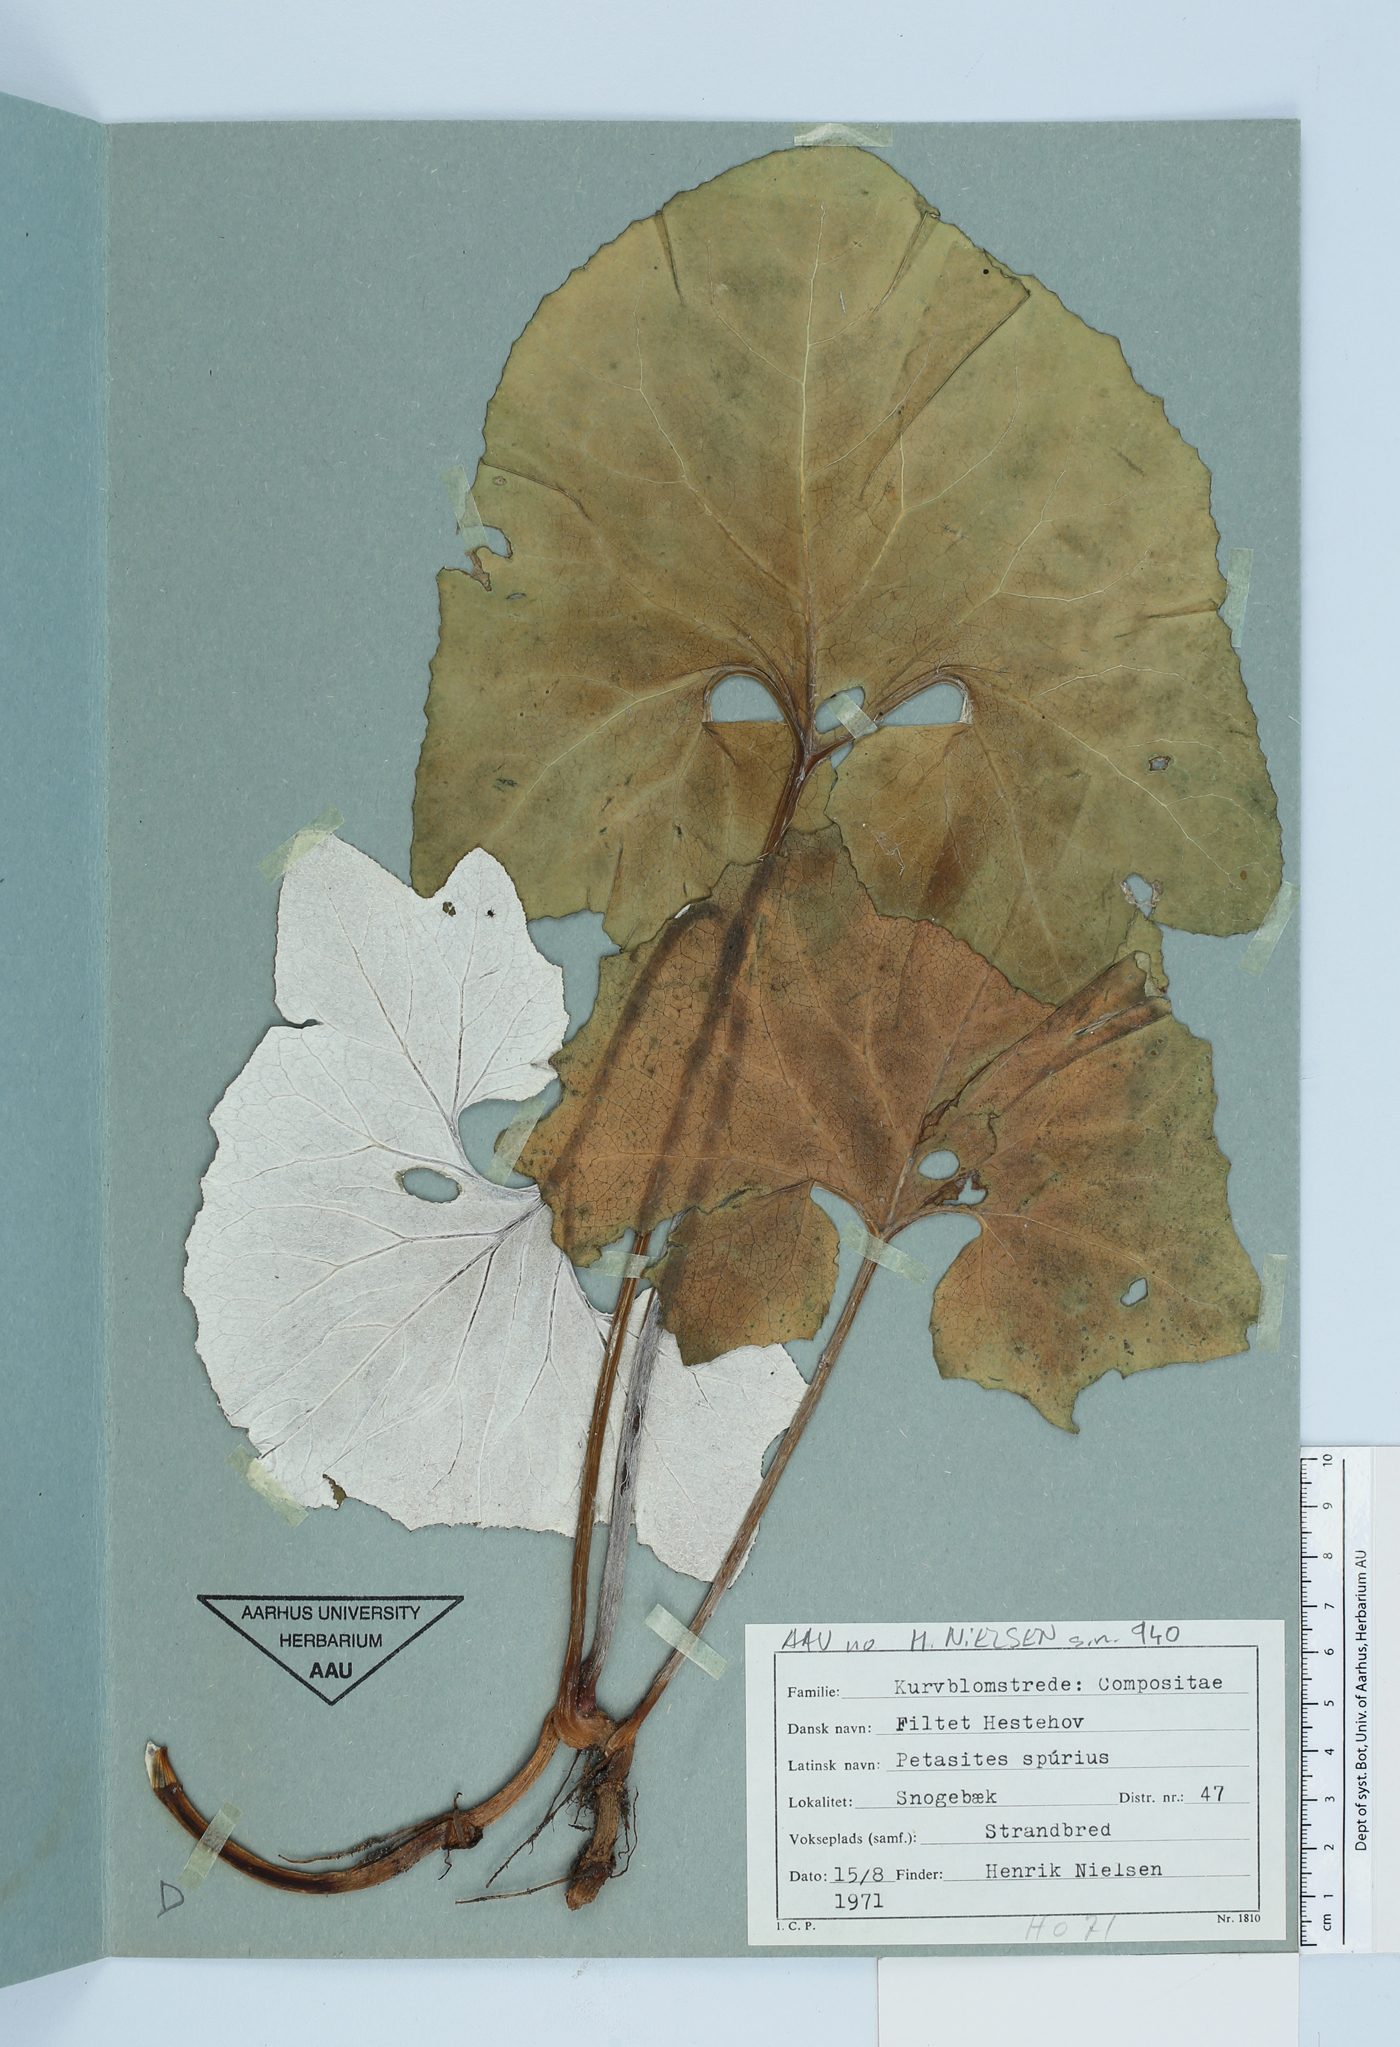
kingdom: Plantae
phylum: Tracheophyta
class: Magnoliopsida
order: Asterales
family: Asteraceae
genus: Petasites
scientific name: Petasites spurius
